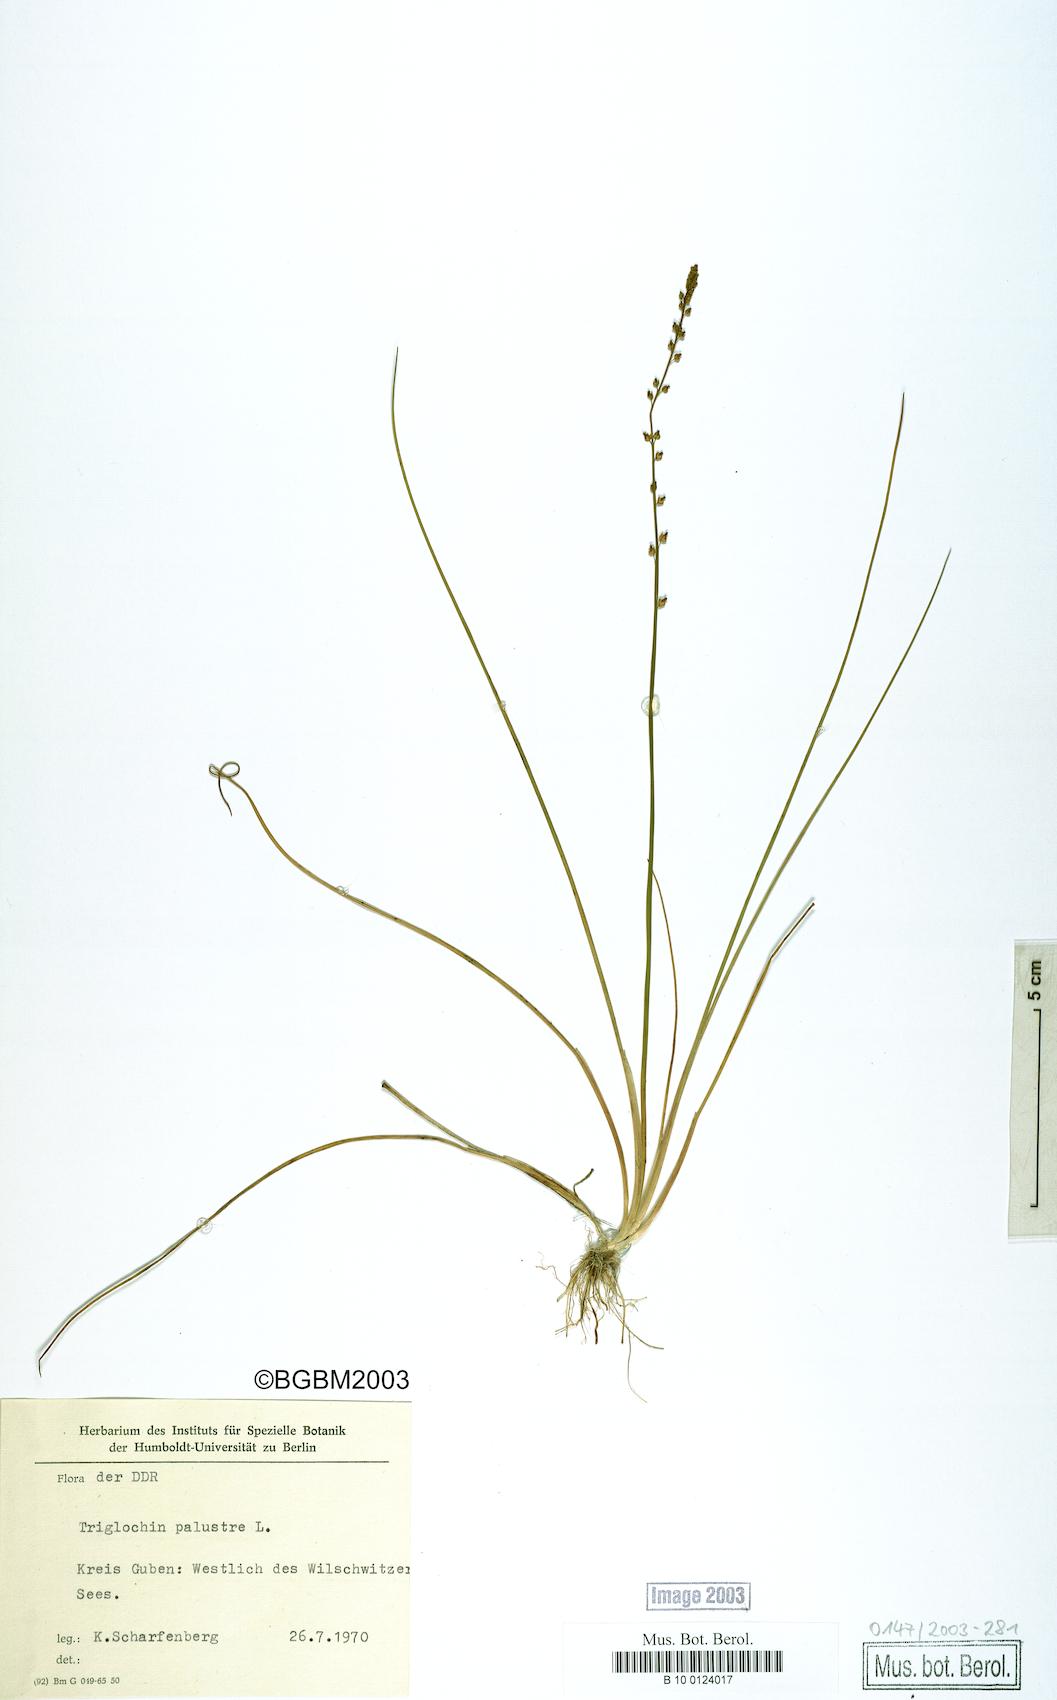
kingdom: Plantae
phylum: Tracheophyta
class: Liliopsida
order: Alismatales
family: Juncaginaceae
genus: Triglochin
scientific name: Triglochin palustris
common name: Marsh arrowgrass
